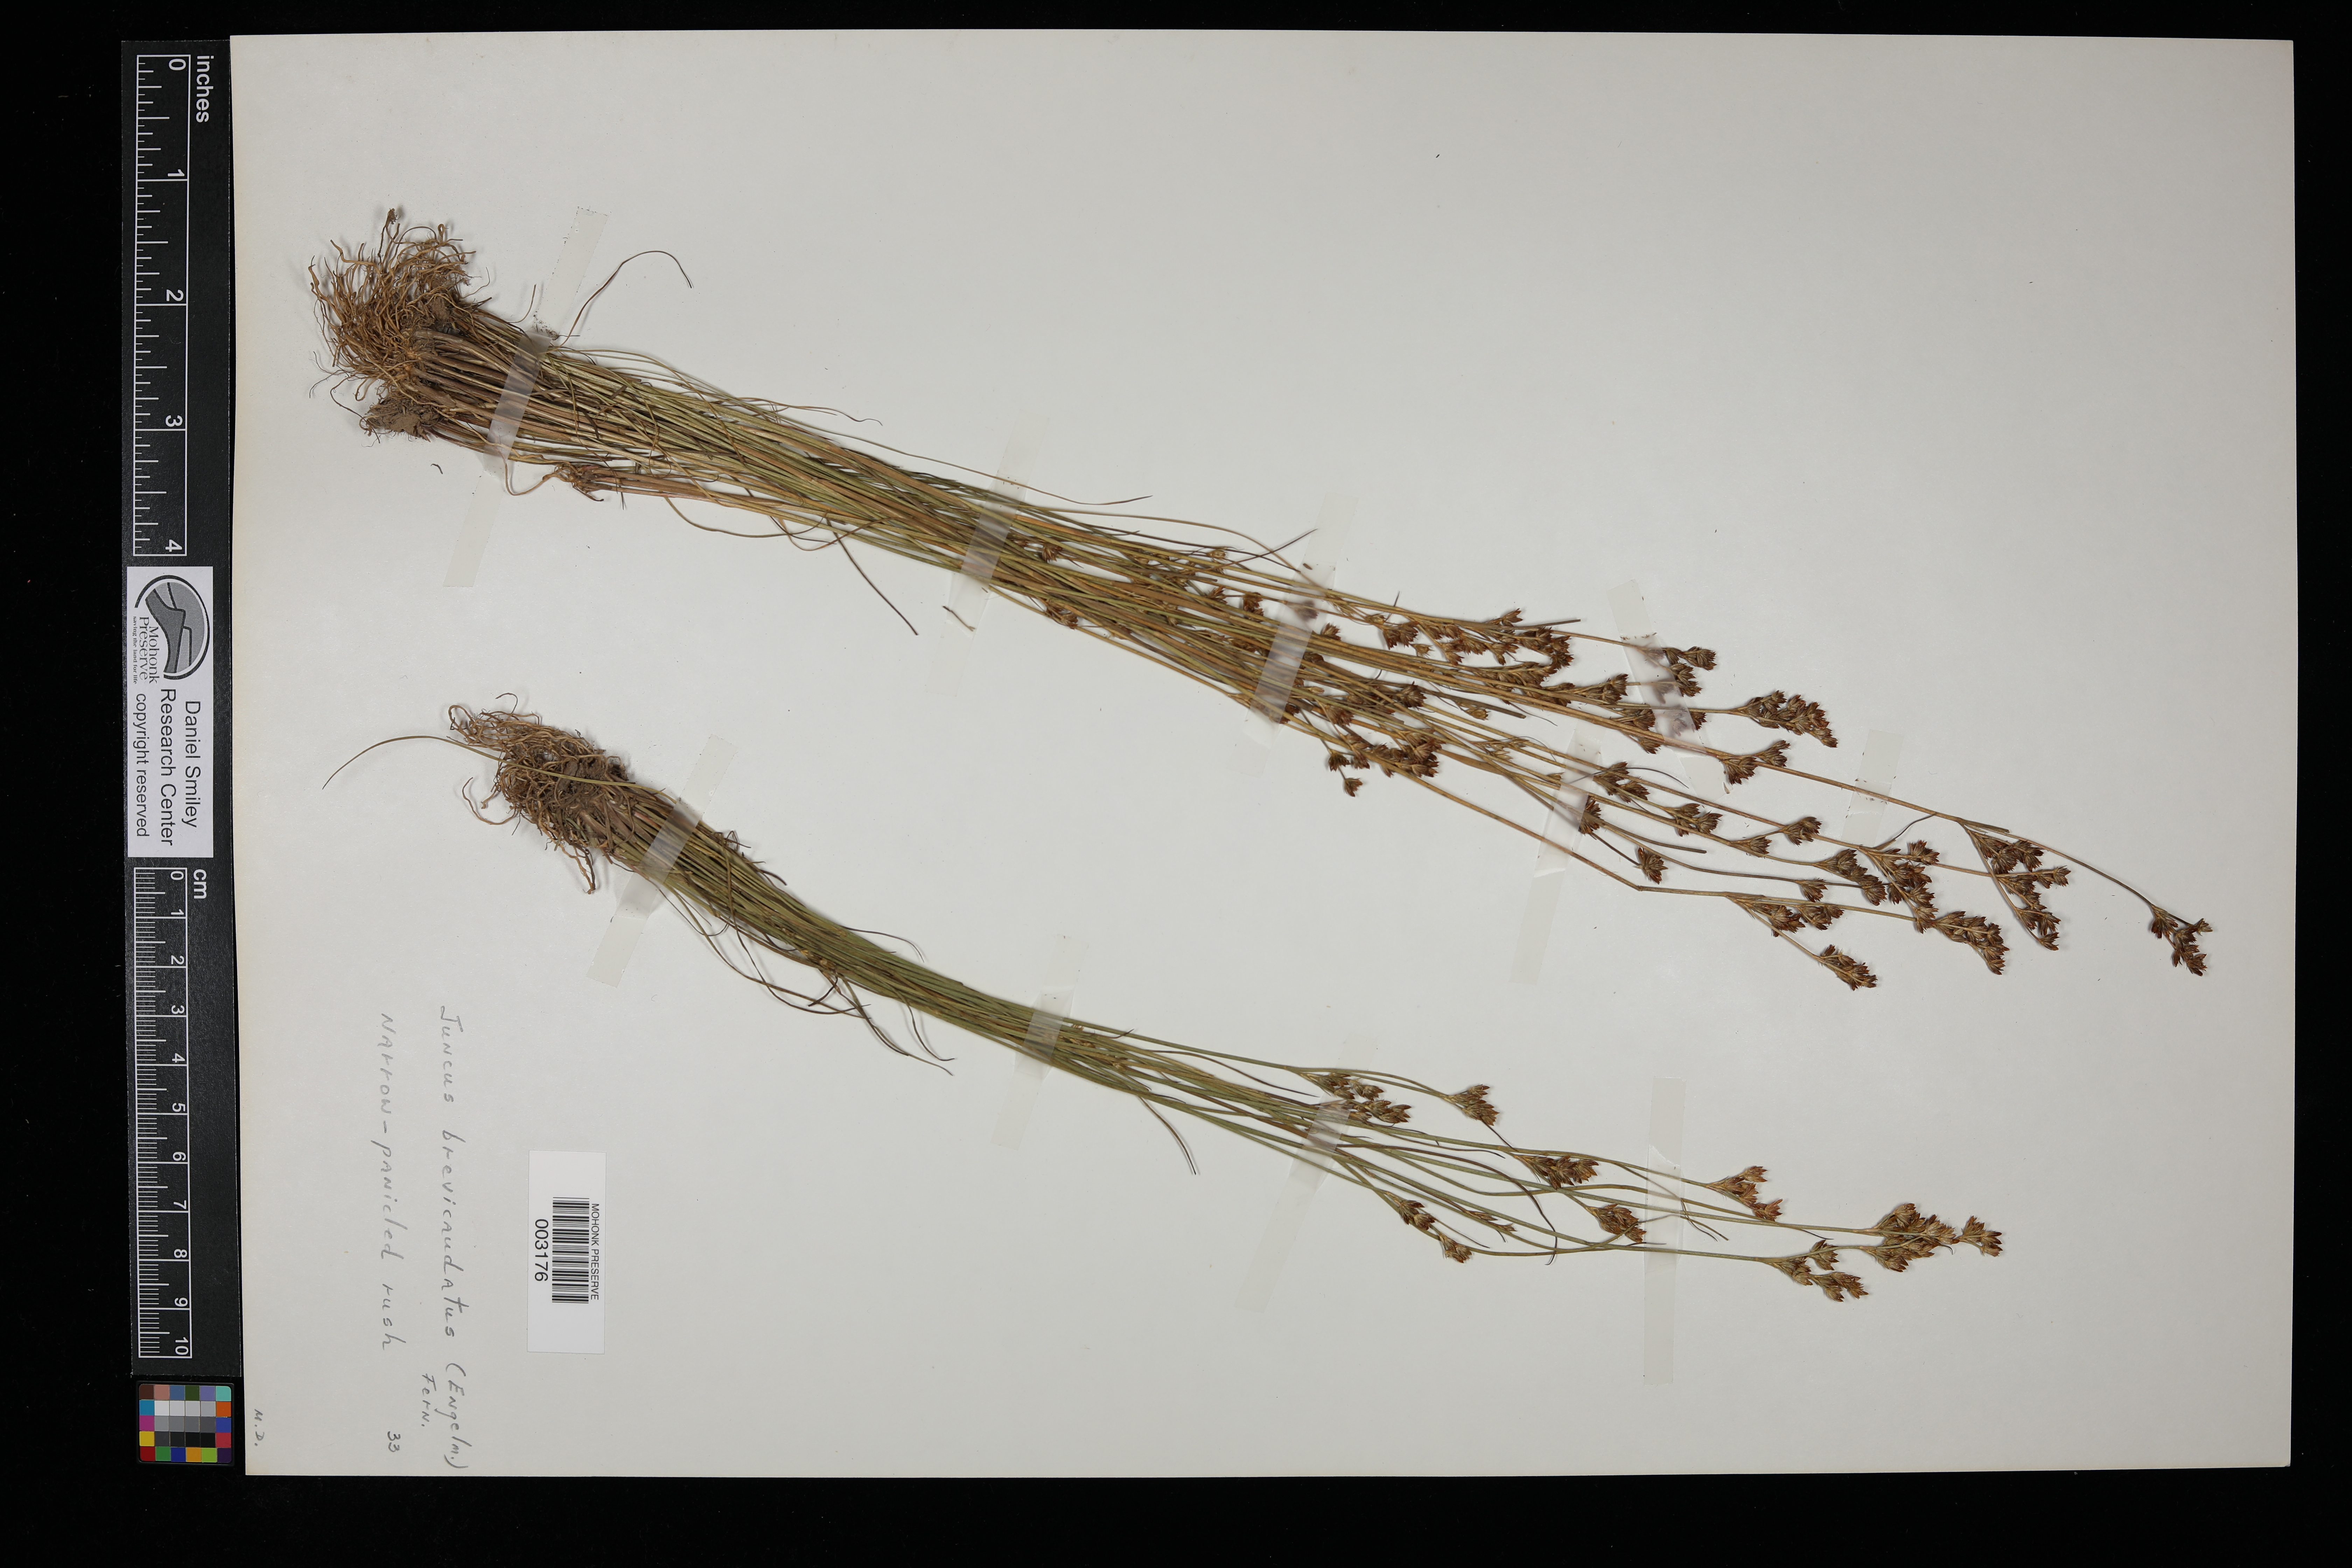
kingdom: Plantae
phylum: Tracheophyta
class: Liliopsida
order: Poales
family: Juncaceae
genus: Juncus
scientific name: Juncus brevicaudatus
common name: Narrow-panicle rush
